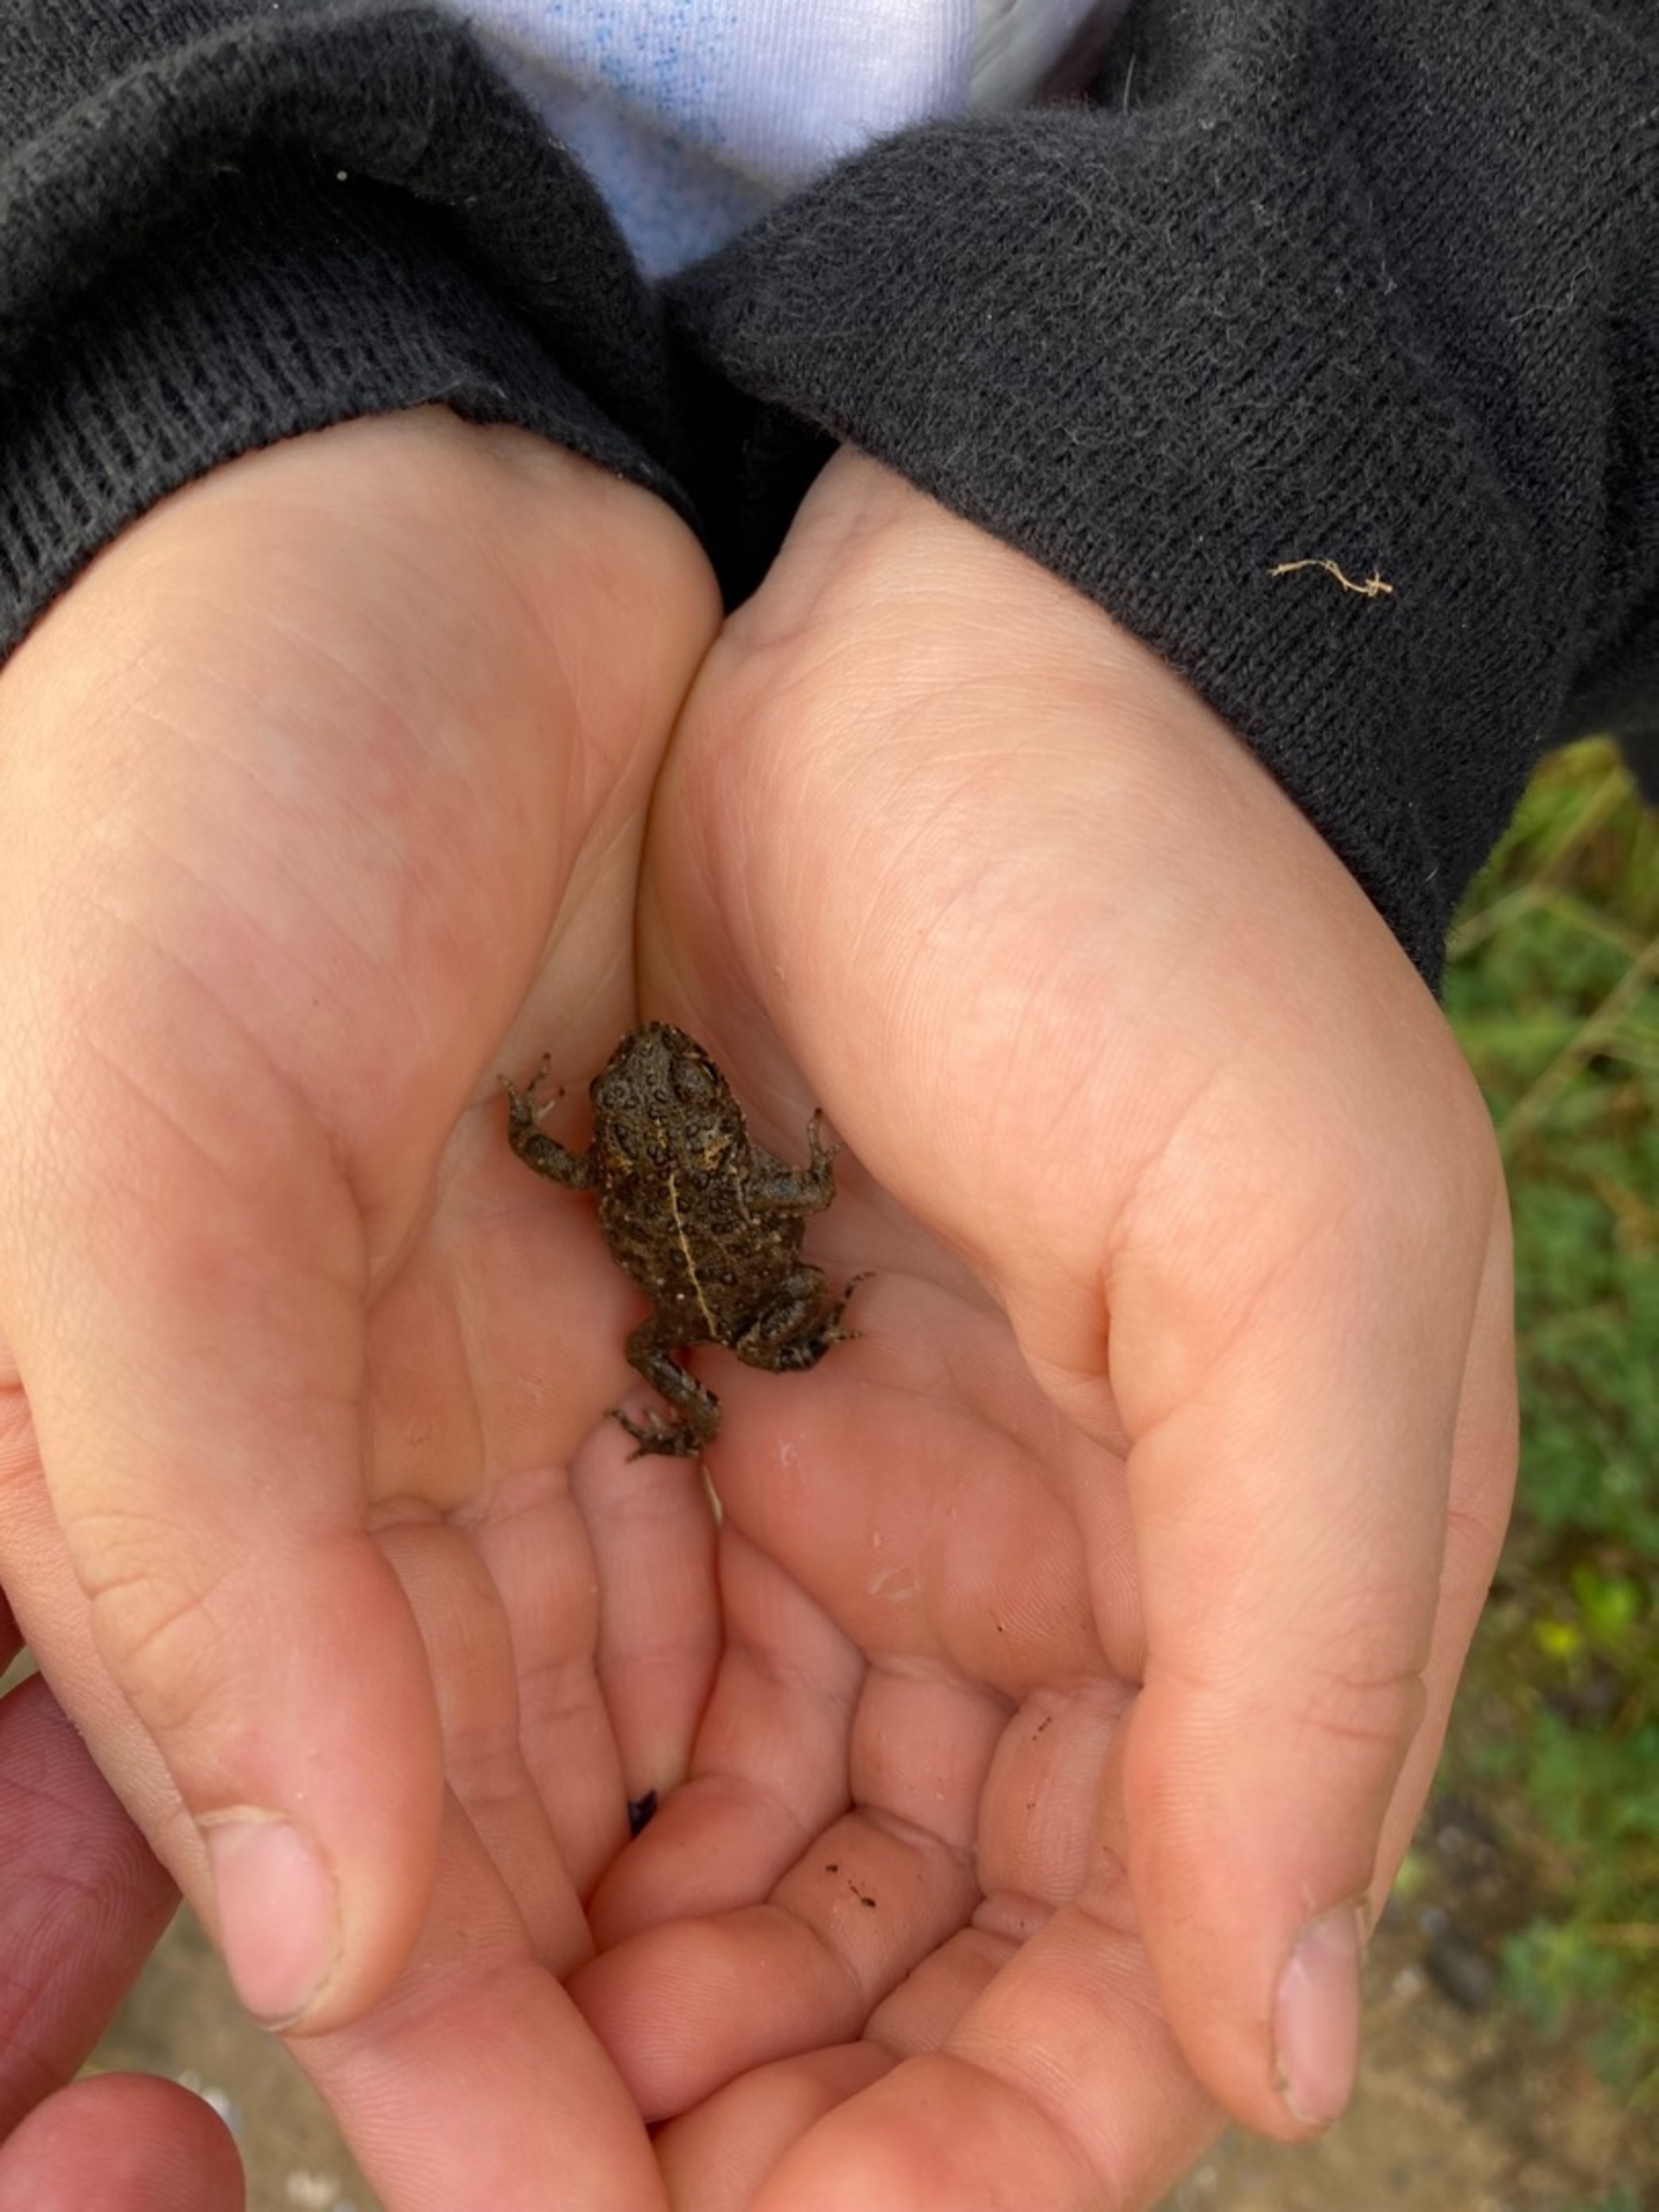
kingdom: Animalia
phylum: Chordata
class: Amphibia
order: Anura
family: Bufonidae
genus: Epidalea
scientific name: Epidalea calamita
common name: Strandtudse
